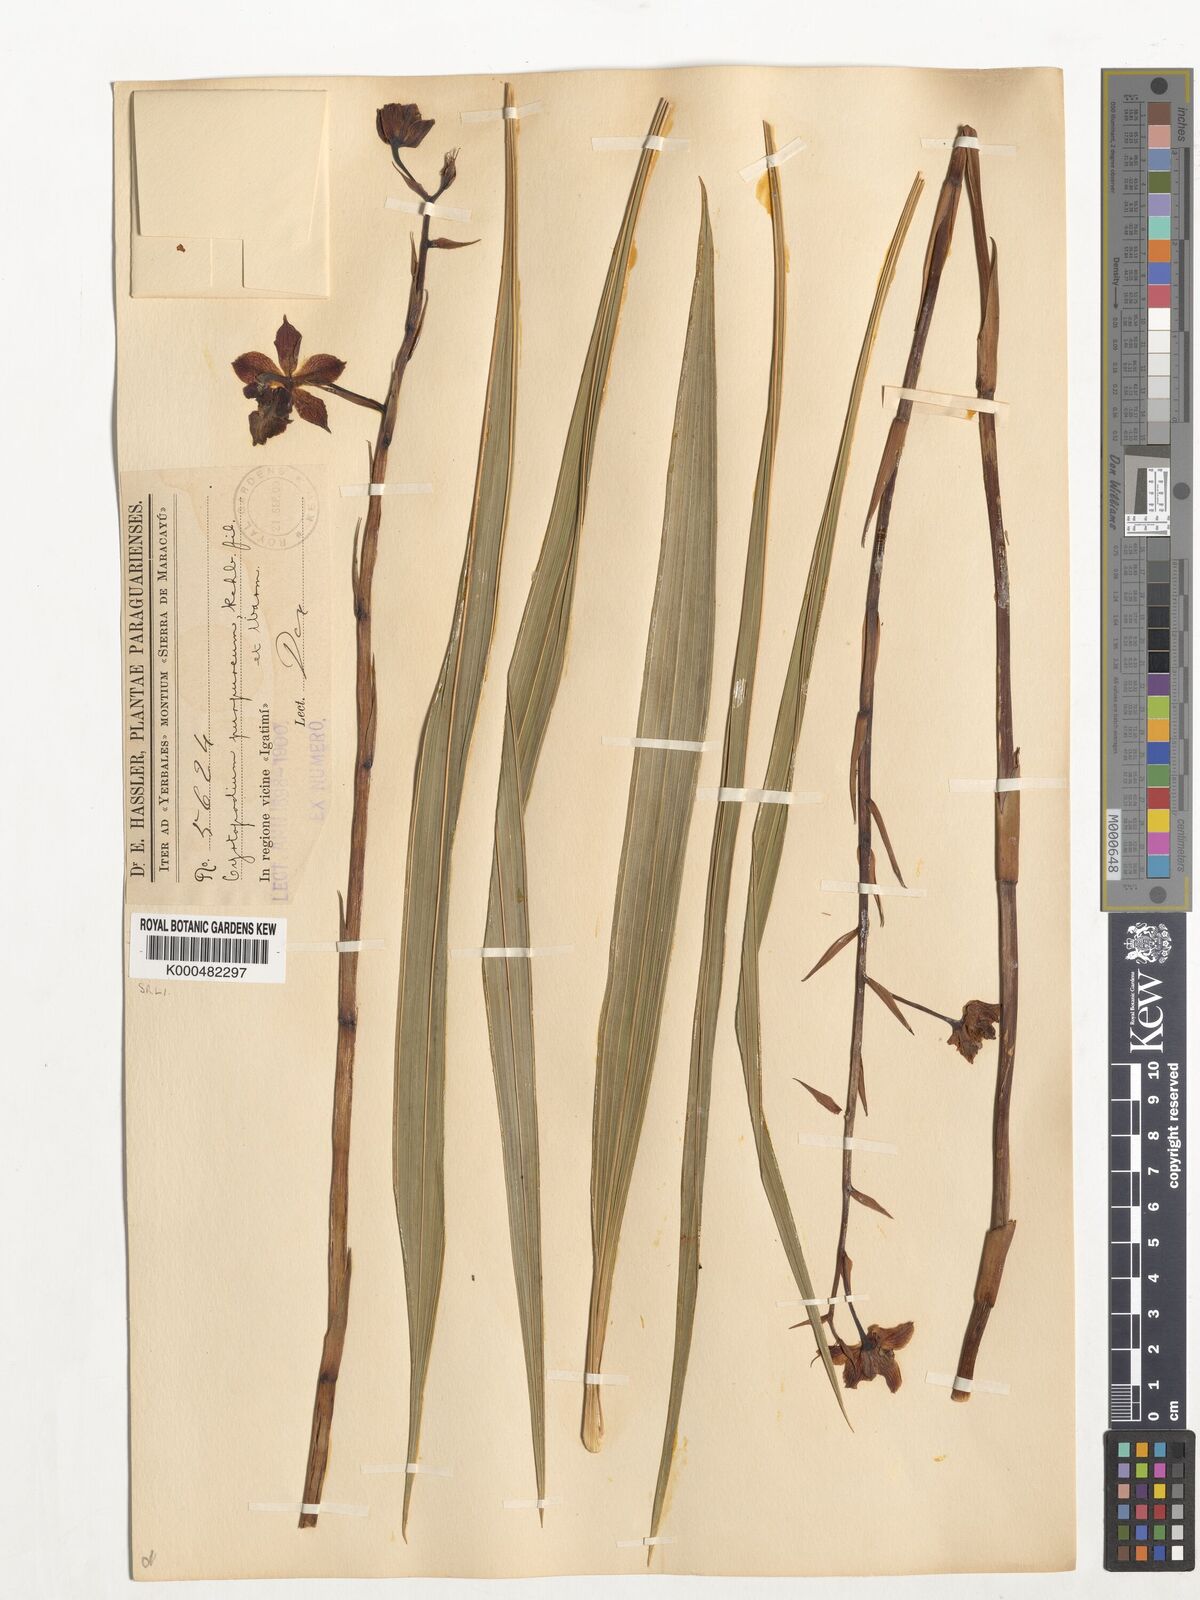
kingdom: Plantae
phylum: Tracheophyta
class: Liliopsida
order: Asparagales
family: Orchidaceae
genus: Cyrtopodium
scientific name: Cyrtopodium brandonianum
